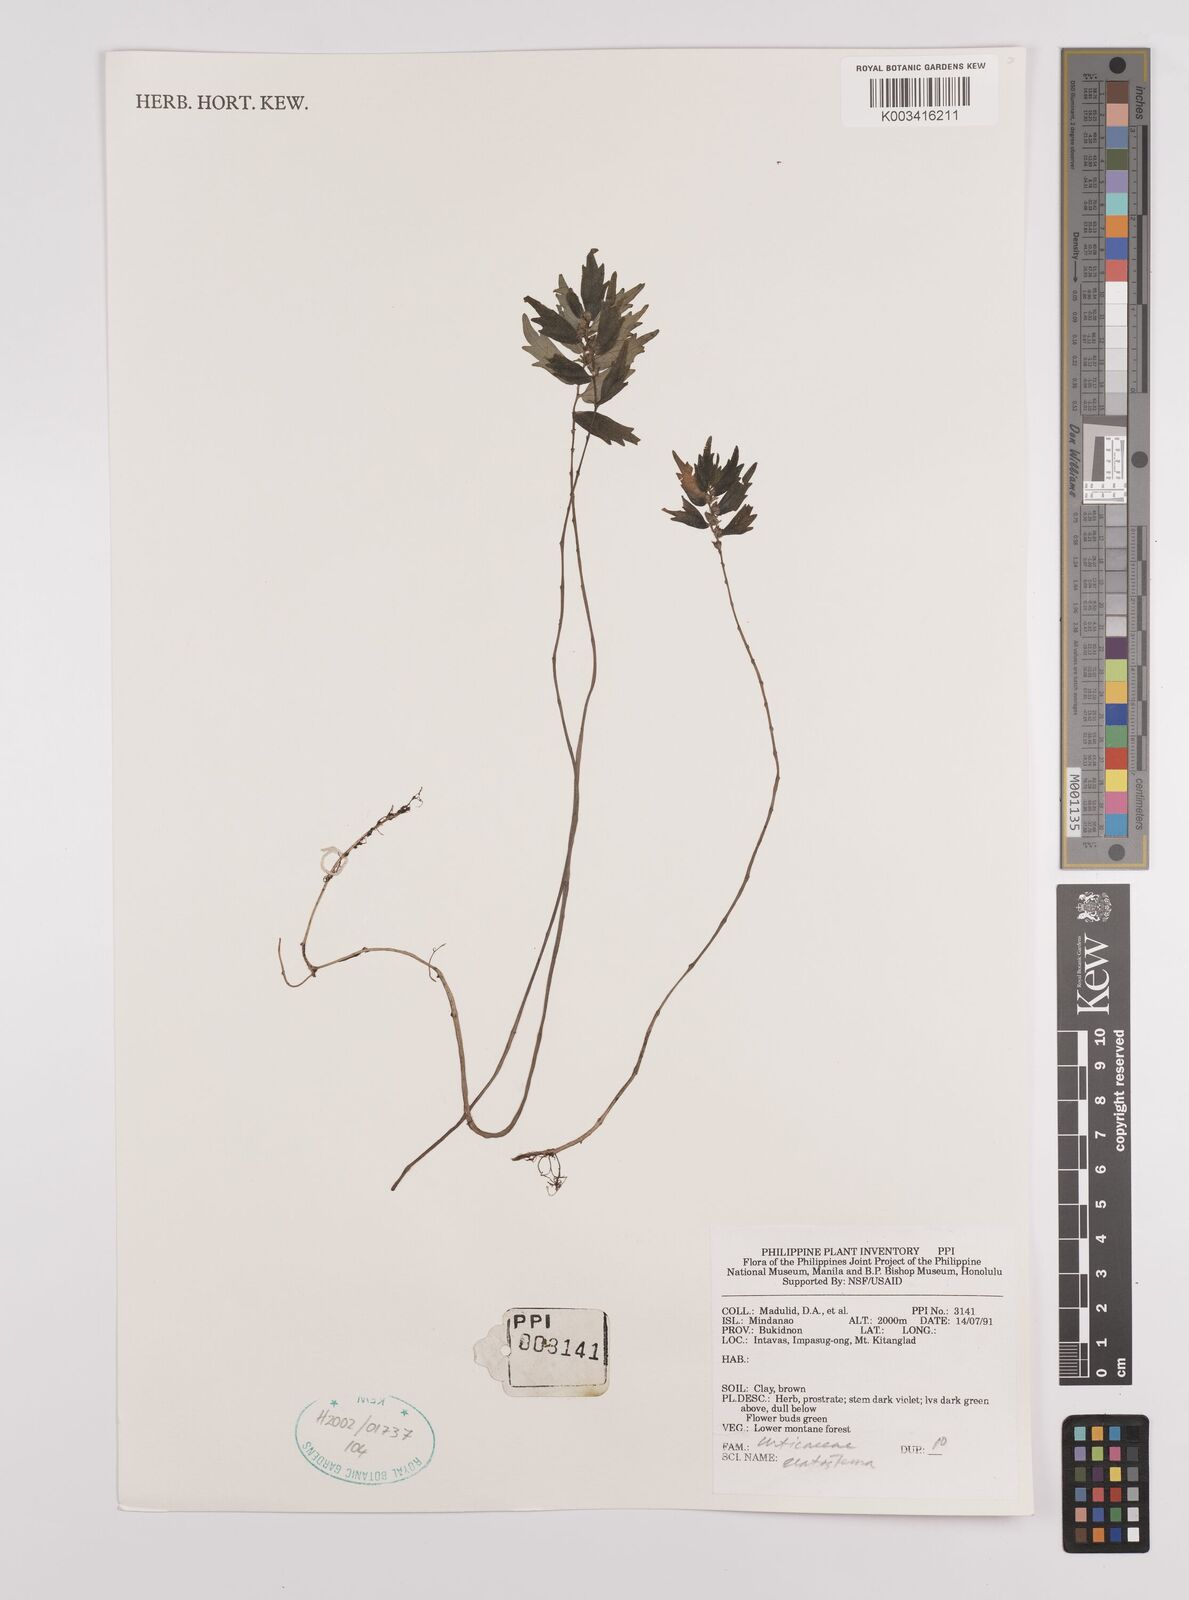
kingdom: Plantae
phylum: Tracheophyta
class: Magnoliopsida
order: Rosales
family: Urticaceae
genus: Elatostema
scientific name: Elatostema
